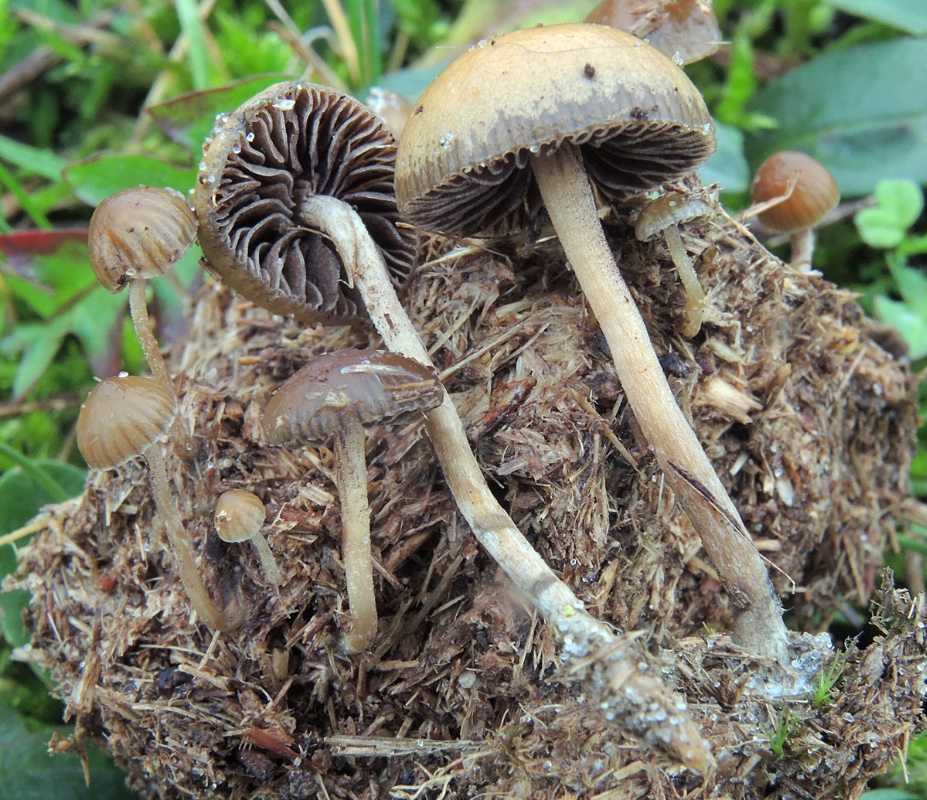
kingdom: Fungi
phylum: Basidiomycota
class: Agaricomycetes
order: Agaricales
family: Hymenogastraceae
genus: Psilocybe
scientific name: Psilocybe liniformans
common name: slimægget nøgenhat
